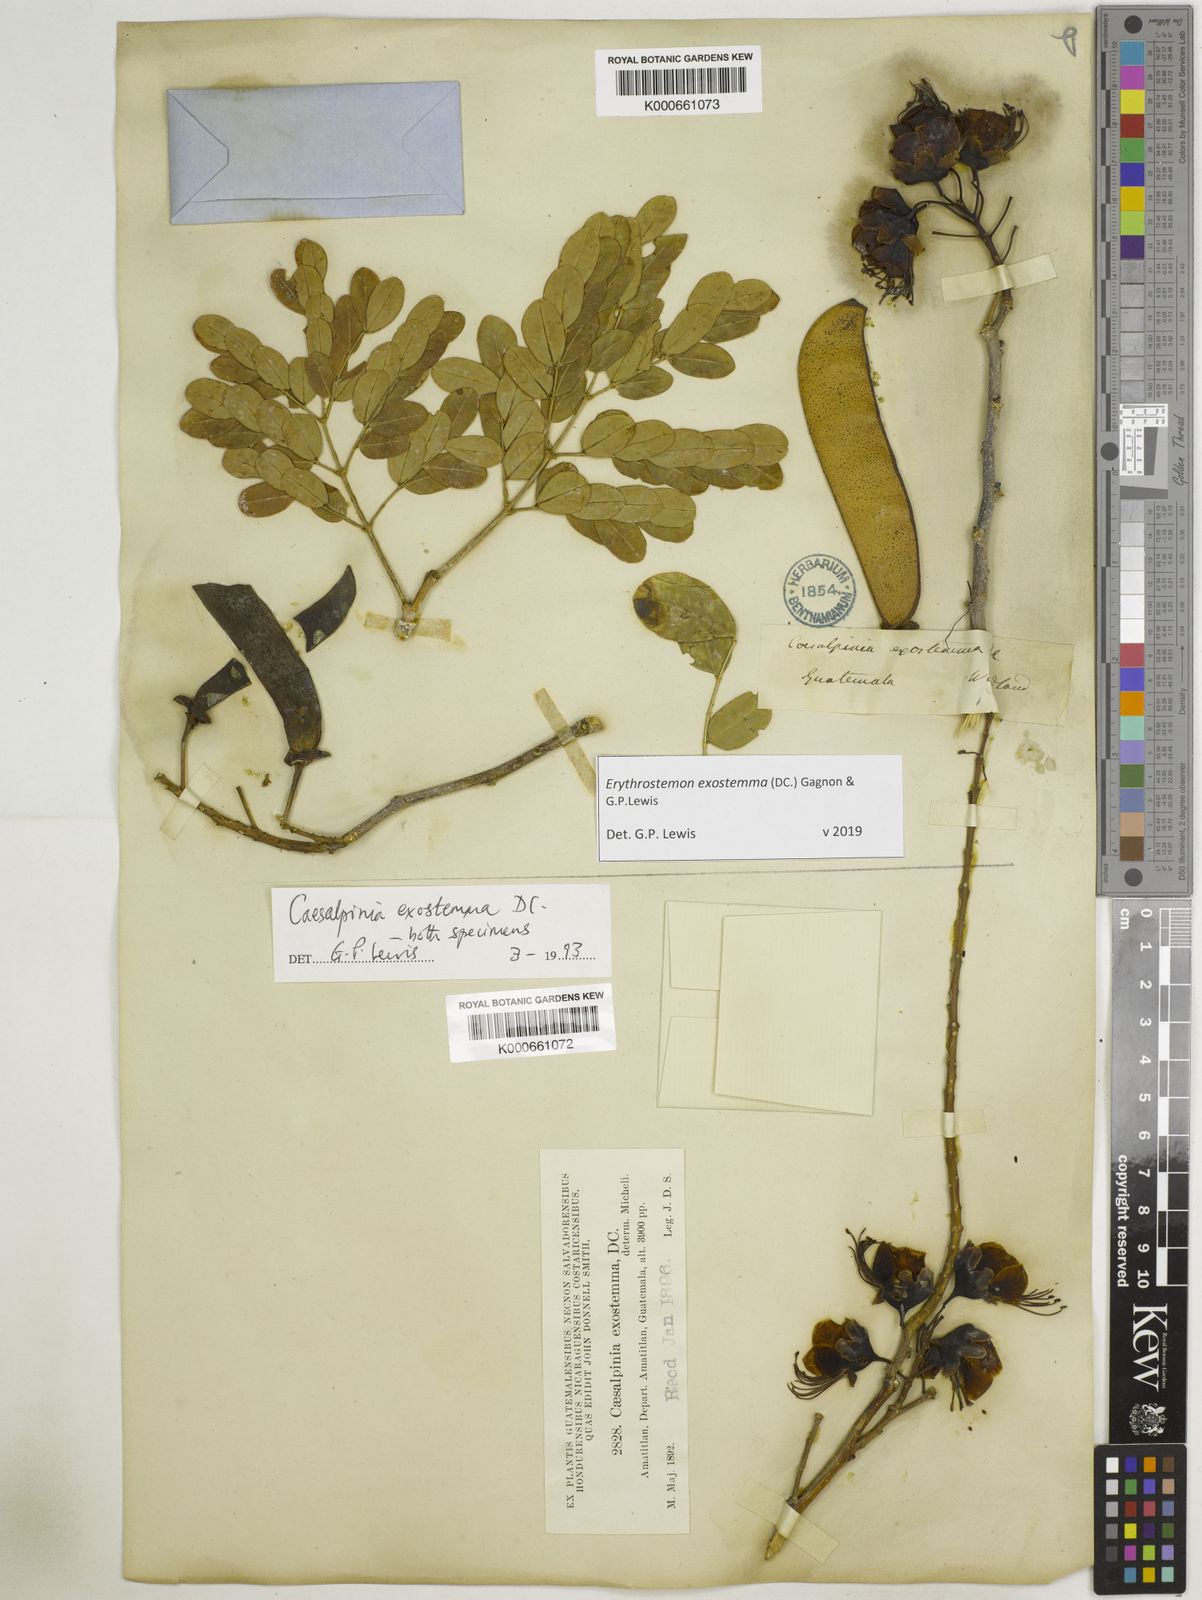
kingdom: Plantae
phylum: Tracheophyta
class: Magnoliopsida
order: Fabales
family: Fabaceae
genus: Erythrostemon
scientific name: Erythrostemon exostemma
